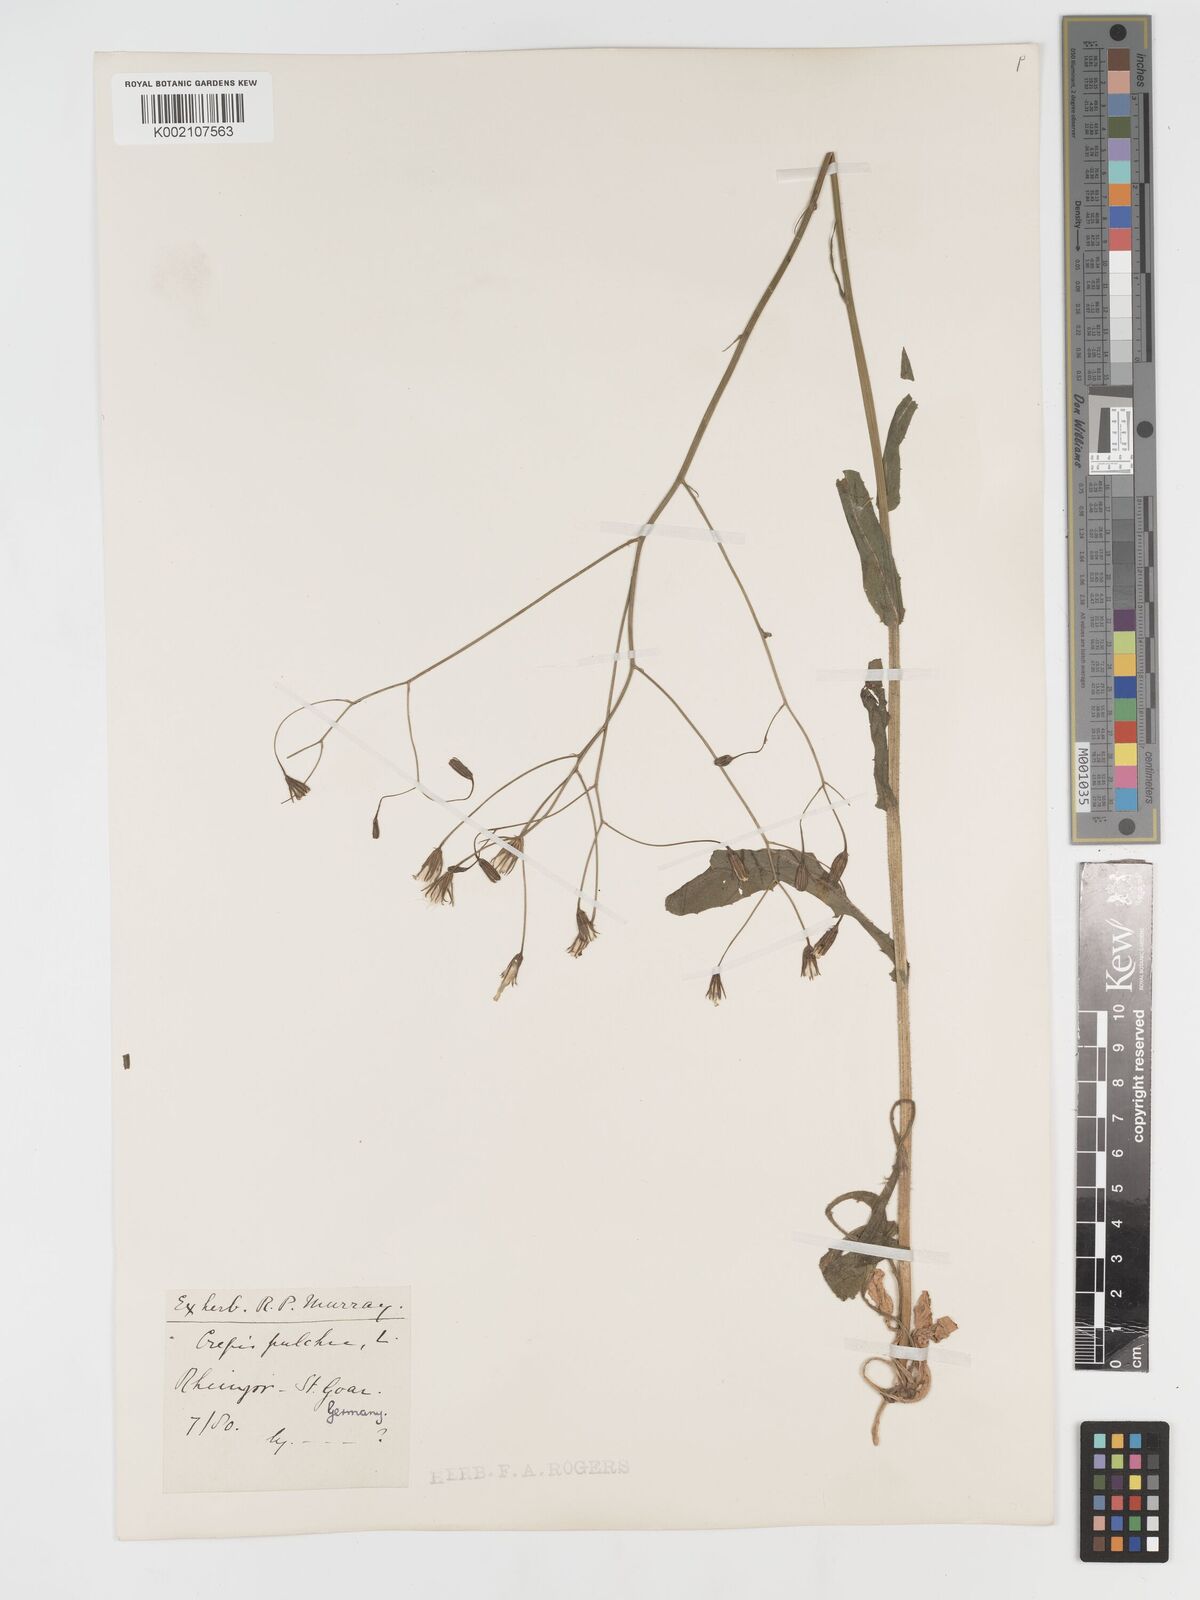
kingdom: Plantae
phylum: Tracheophyta
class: Magnoliopsida
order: Asterales
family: Asteraceae
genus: Crepis
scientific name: Crepis pulchra
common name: Hawk's-beard
